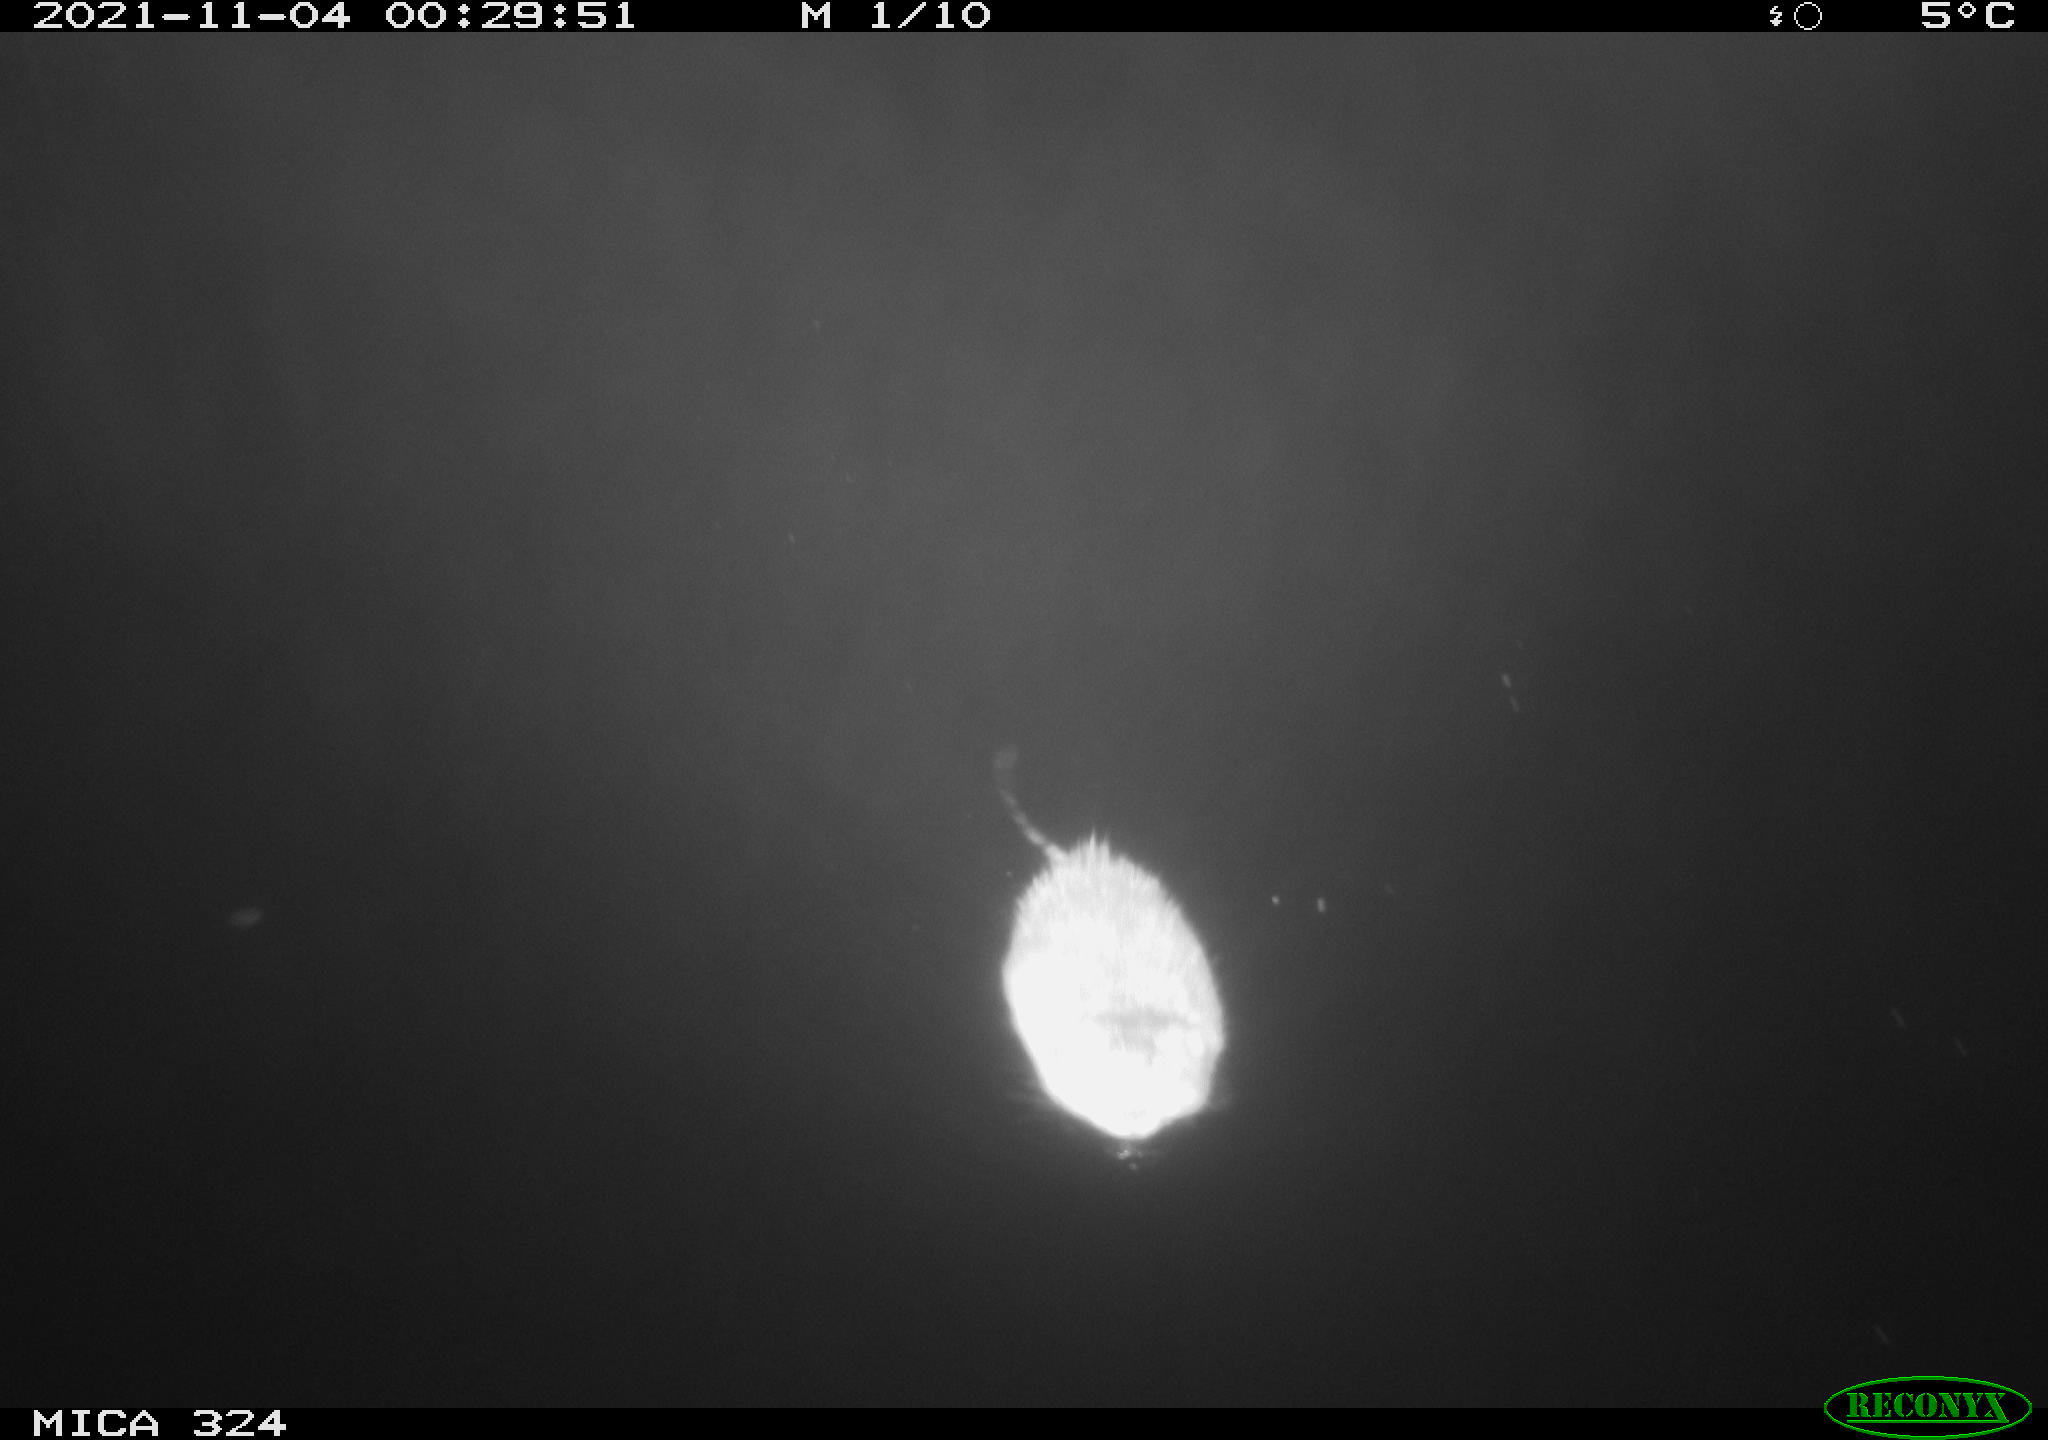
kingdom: Animalia
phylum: Chordata
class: Mammalia
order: Rodentia
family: Cricetidae
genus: Ondatra
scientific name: Ondatra zibethicus
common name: Muskrat
